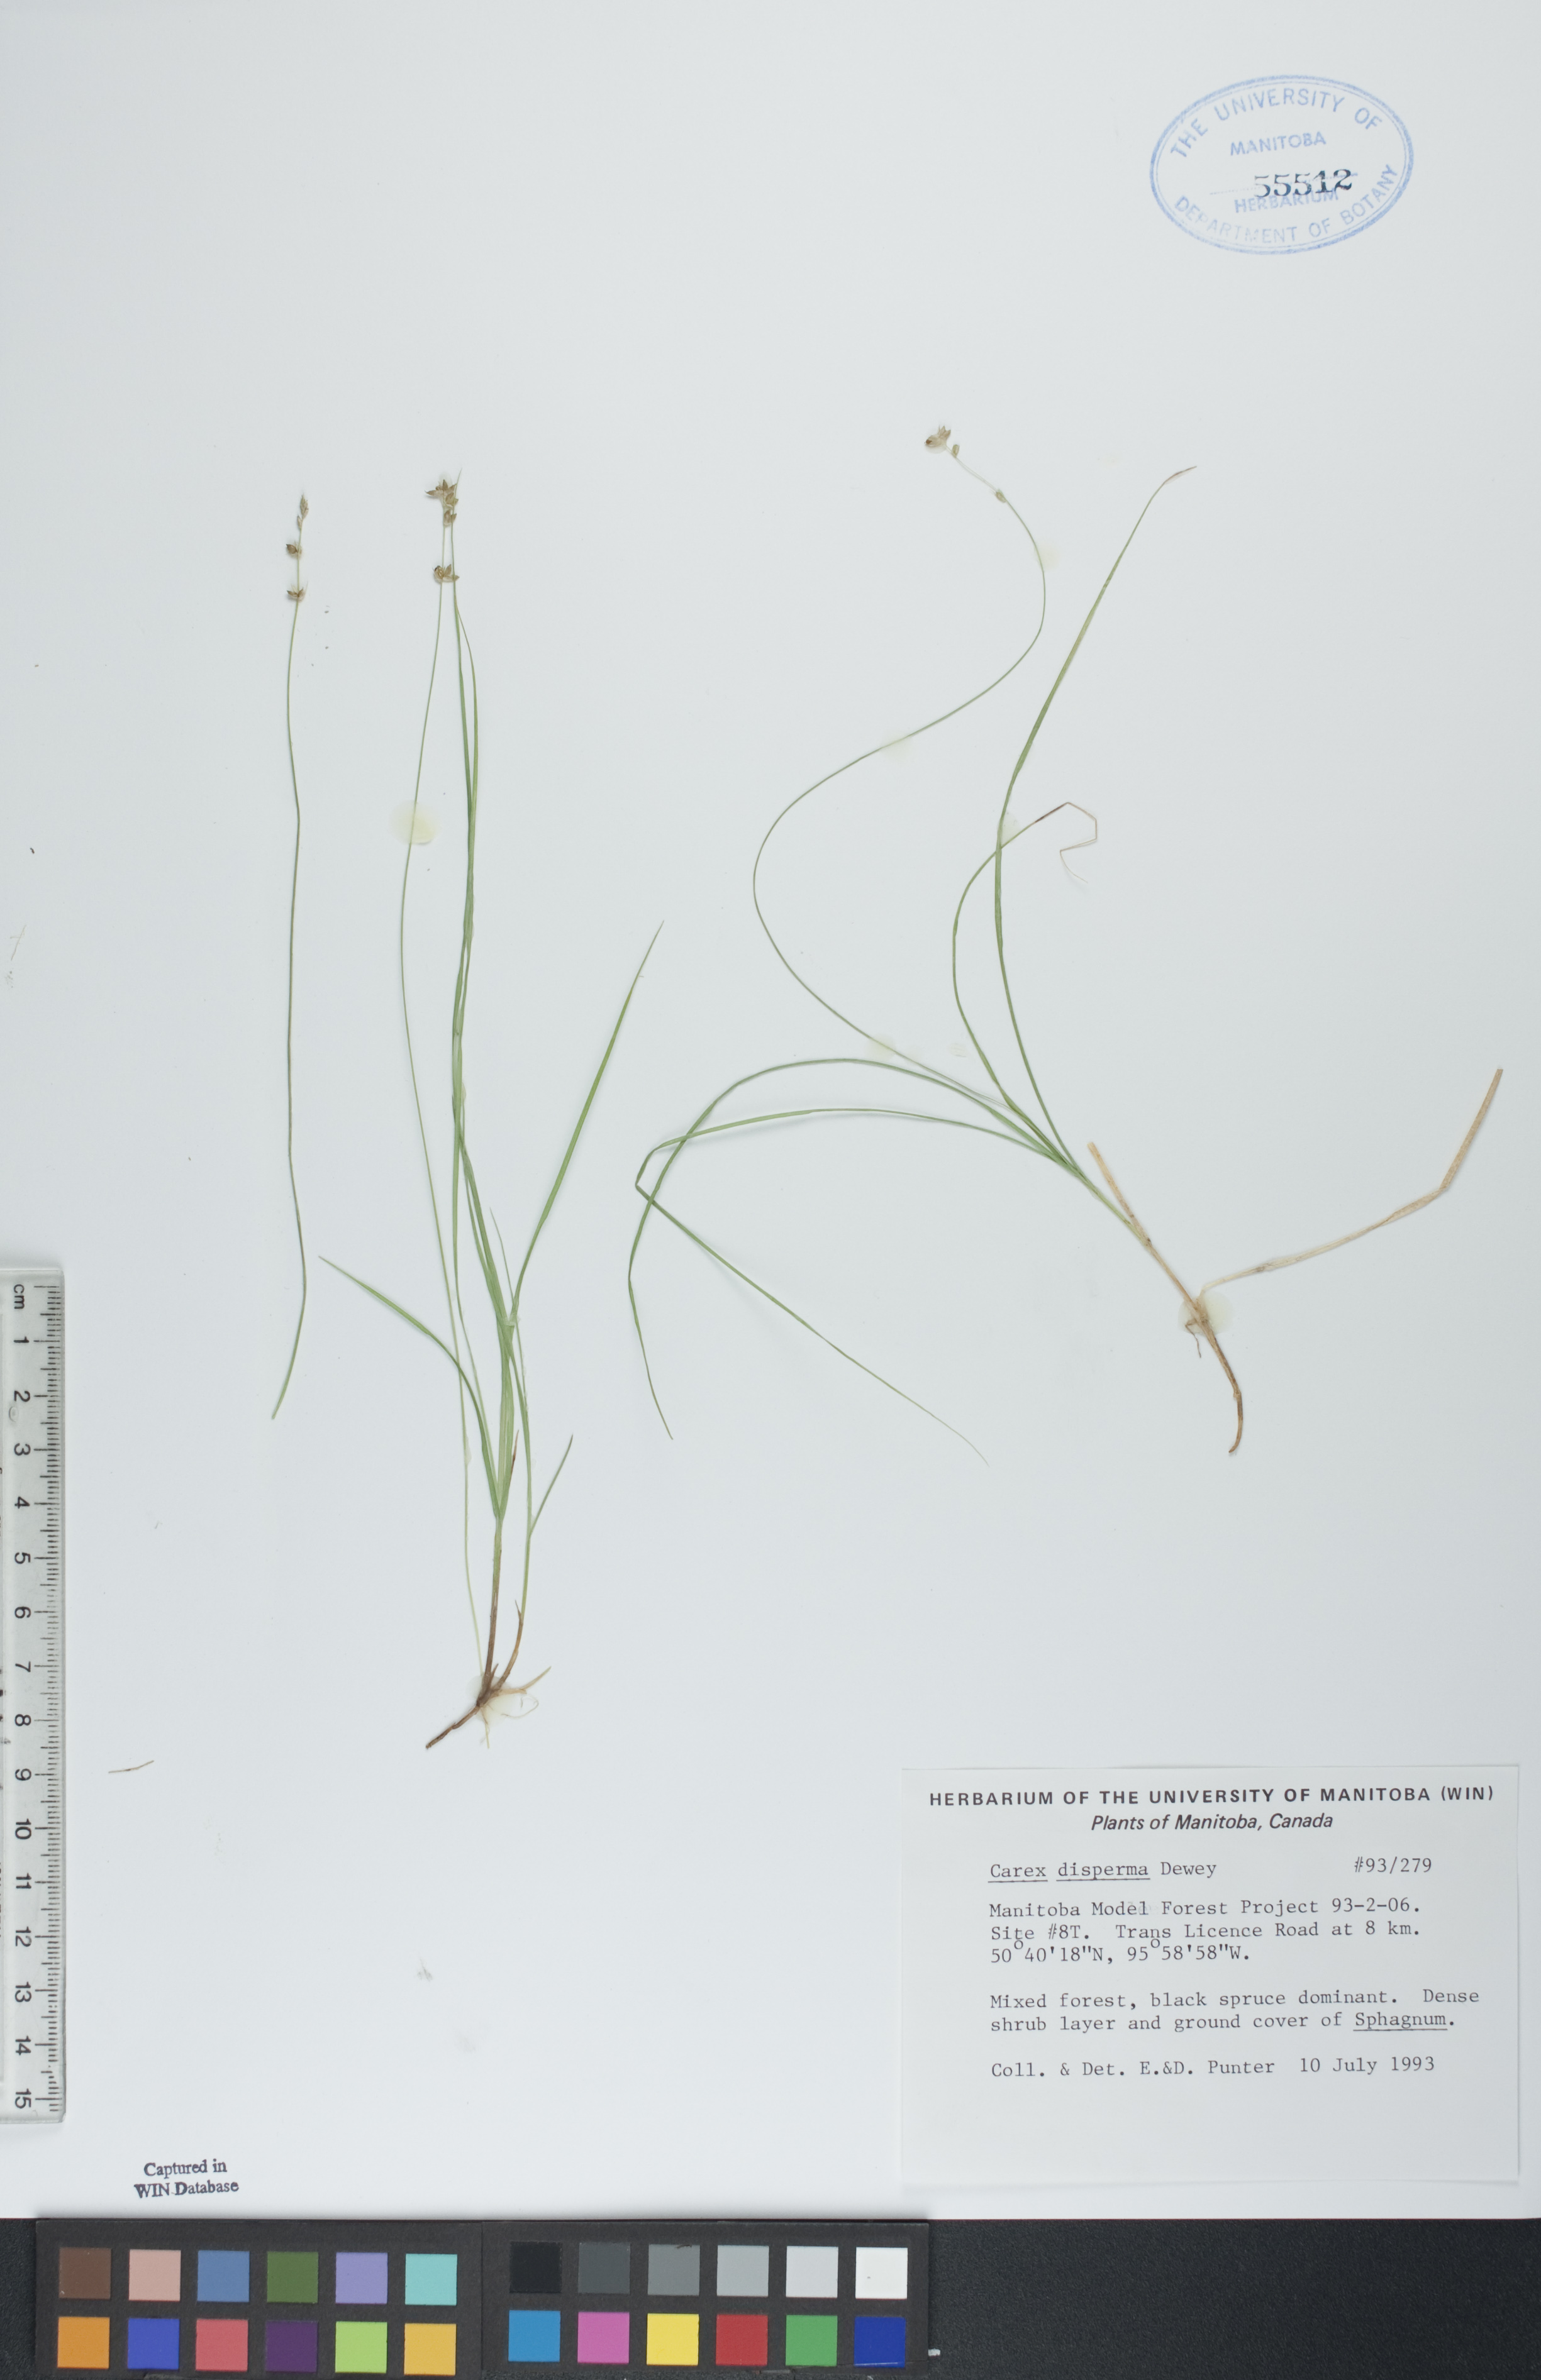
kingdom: Plantae
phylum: Tracheophyta
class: Liliopsida
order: Poales
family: Cyperaceae
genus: Carex
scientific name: Carex disperma
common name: Short-leaved sedge
